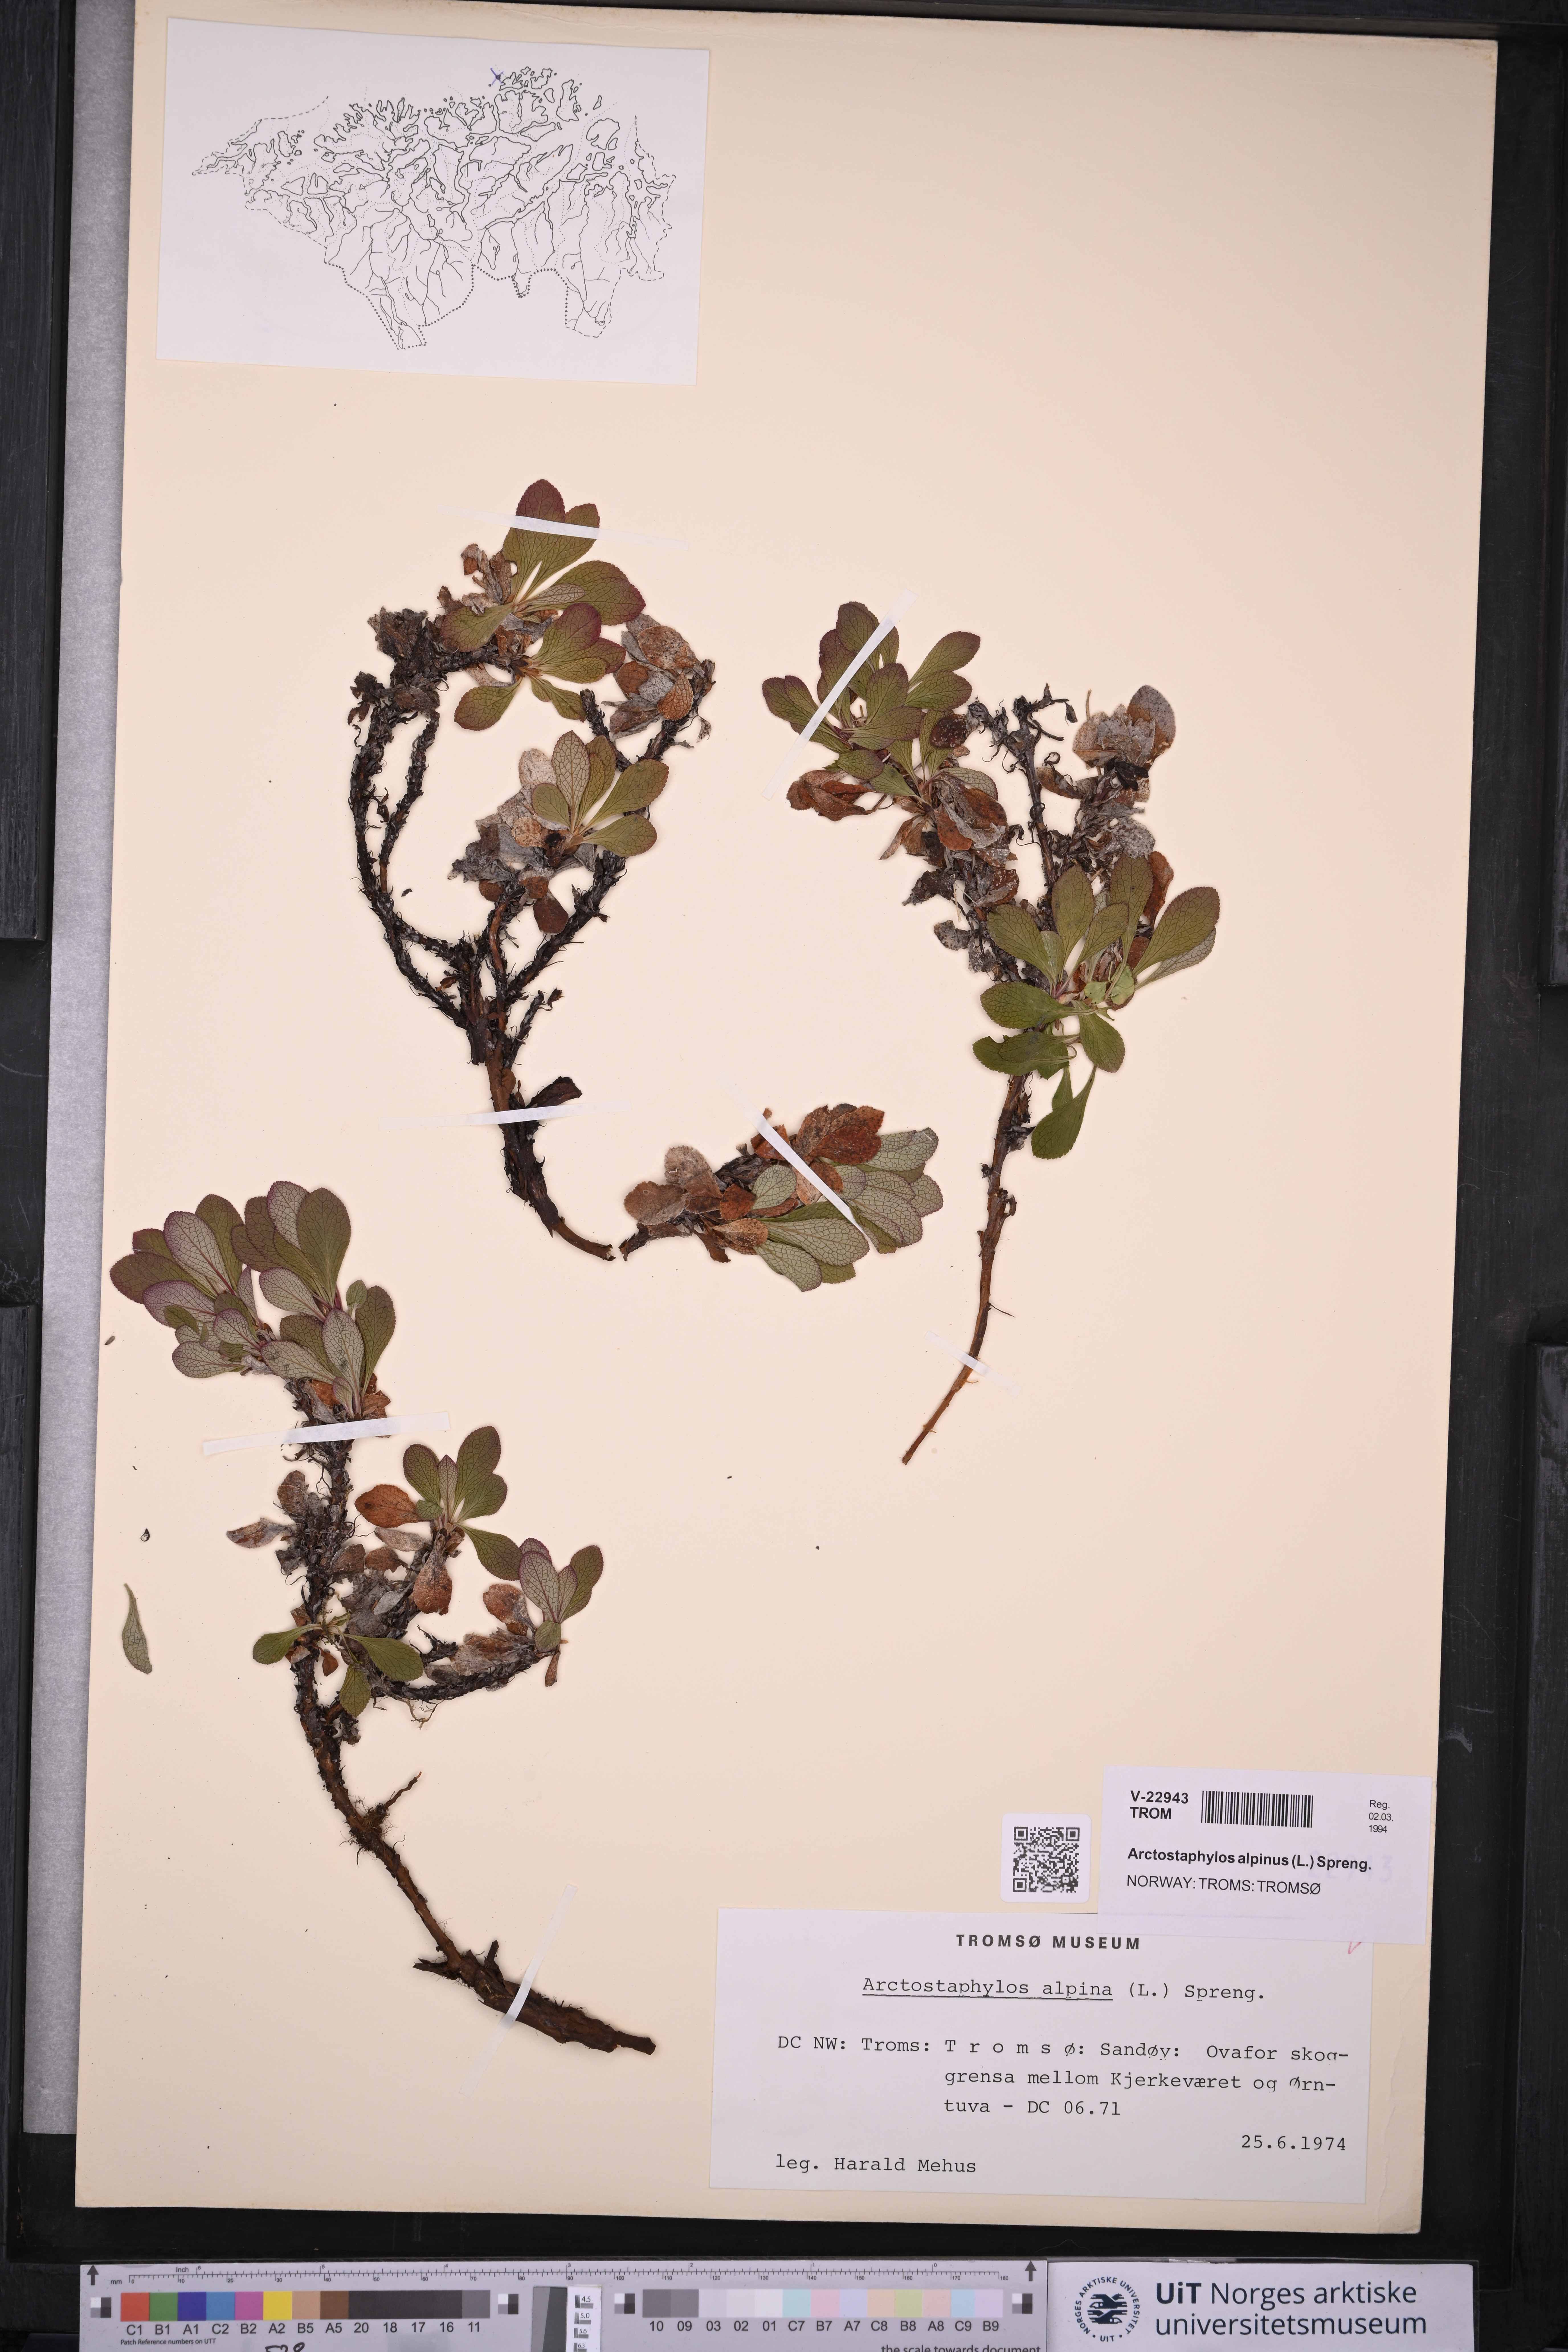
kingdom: Plantae
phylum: Tracheophyta
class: Magnoliopsida
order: Ericales
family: Ericaceae
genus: Arctostaphylos
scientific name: Arctostaphylos alpinus
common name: Alpine bearberry
